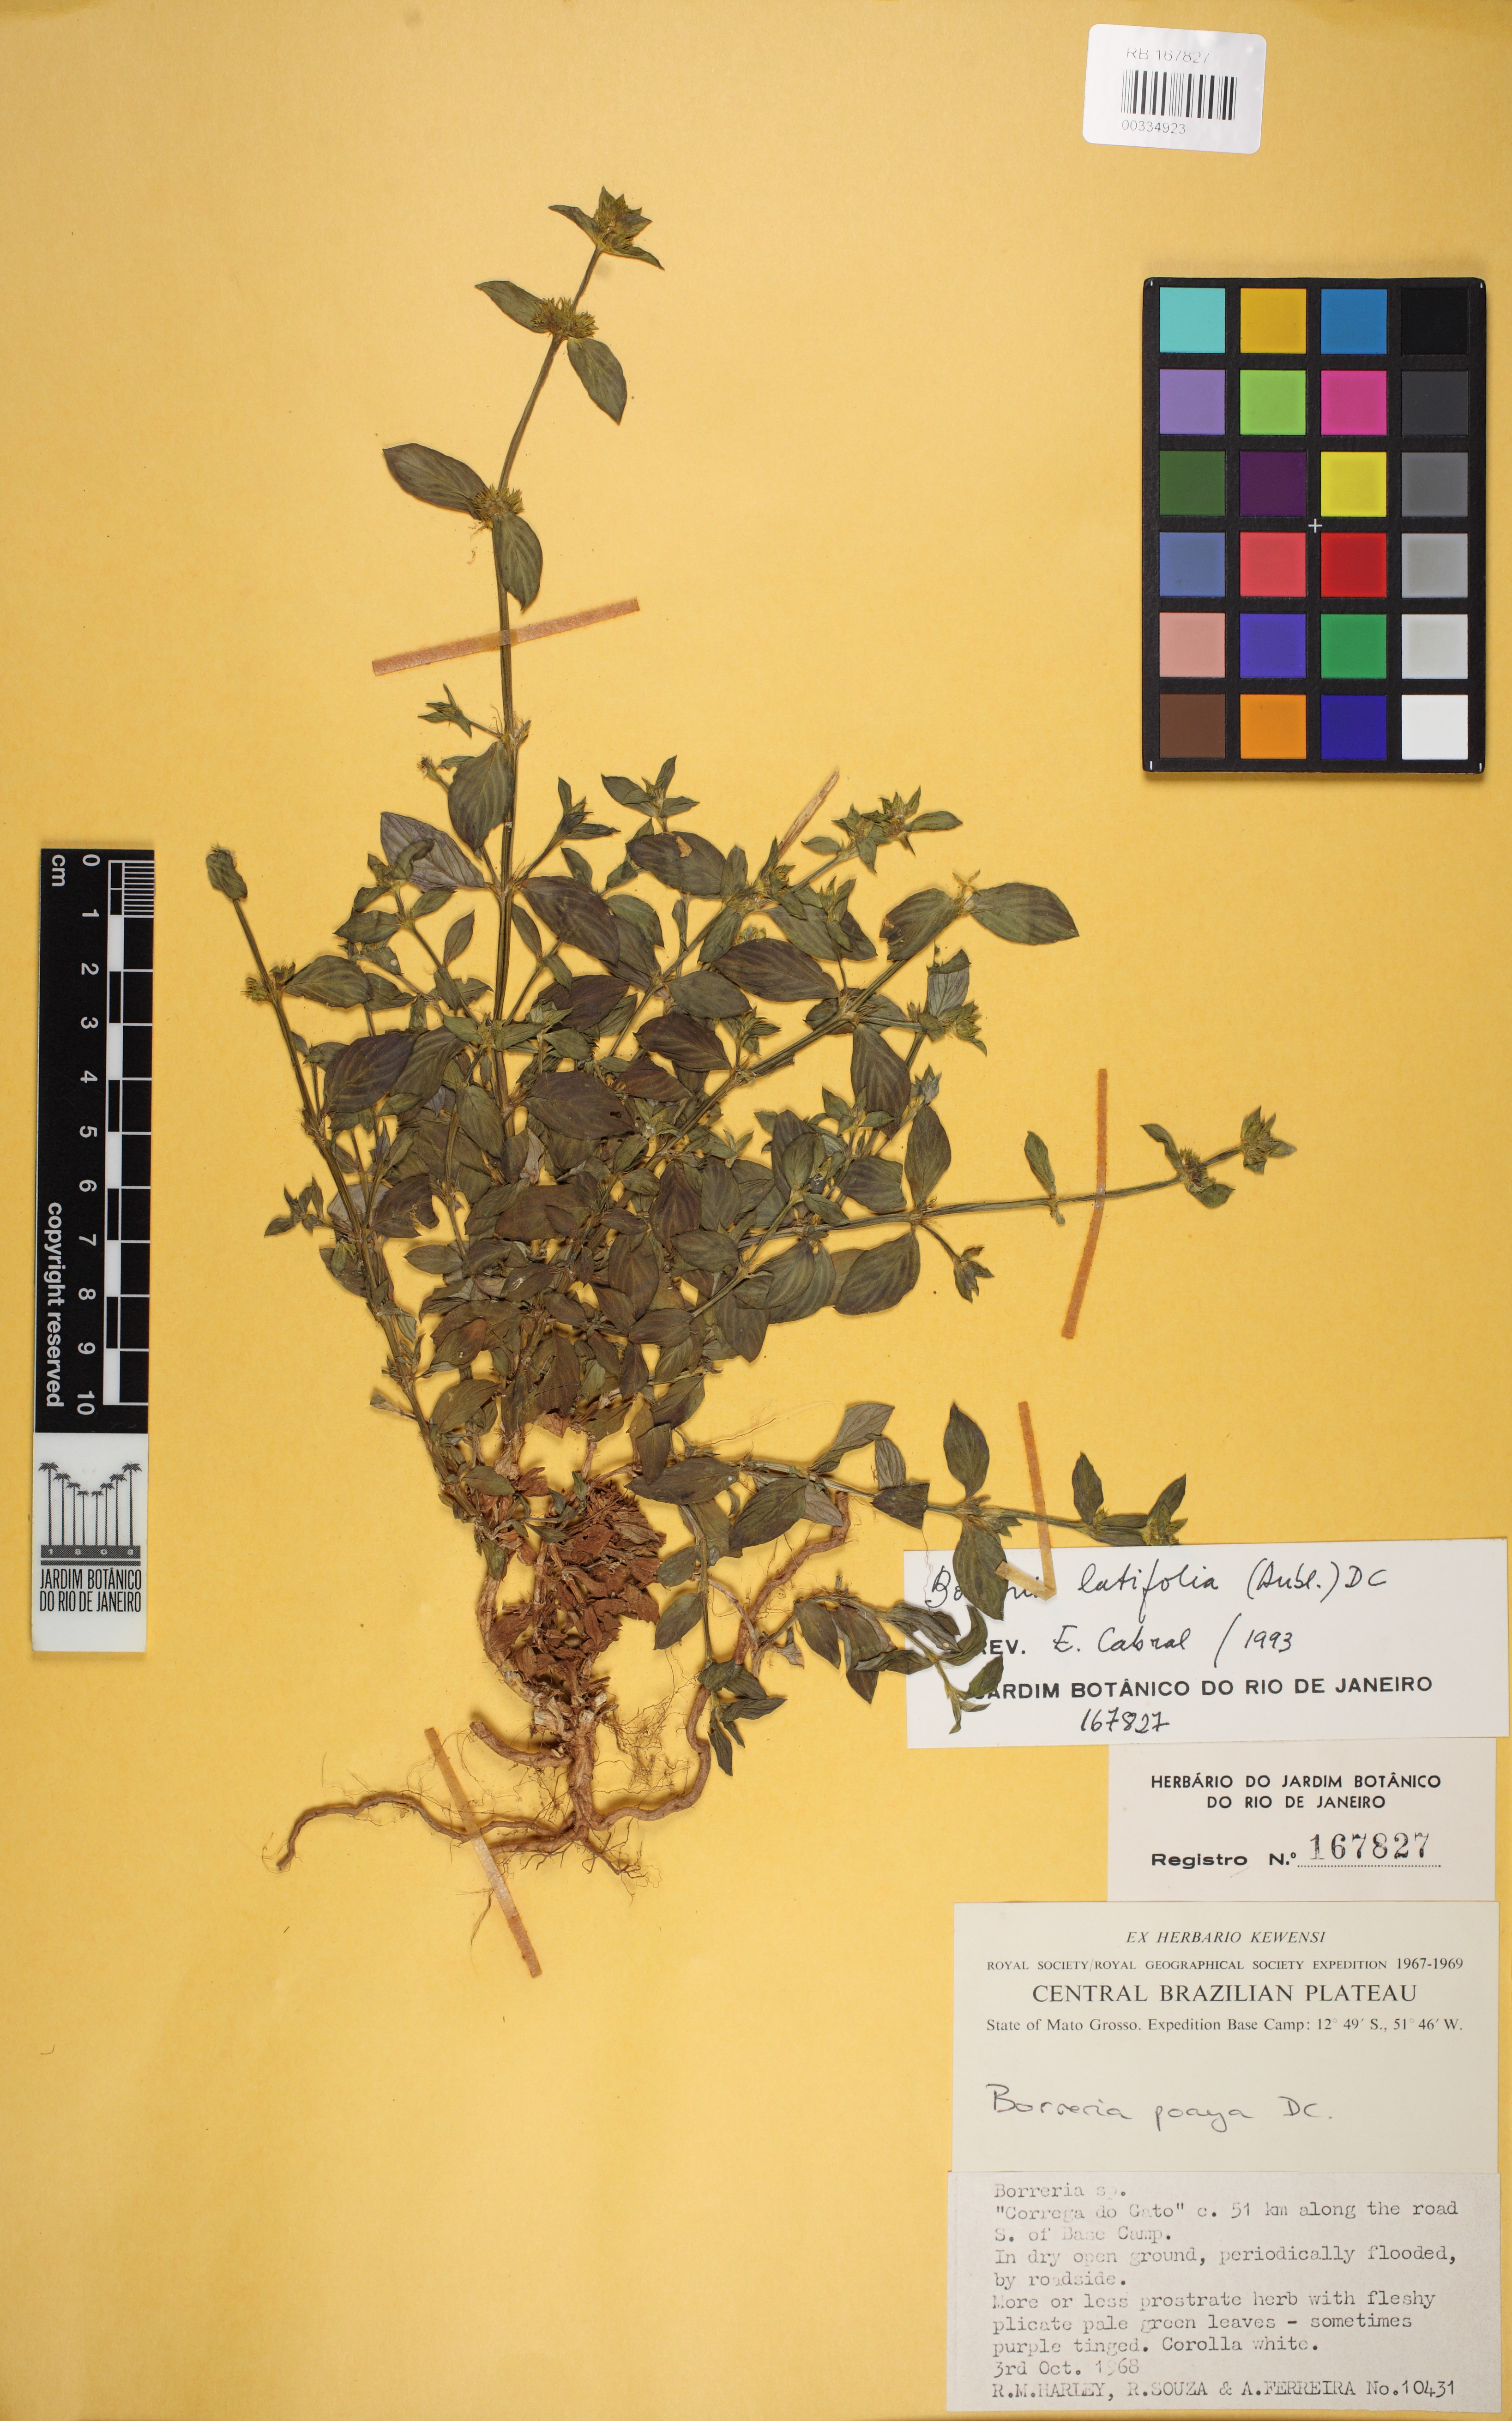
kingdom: Plantae
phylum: Tracheophyta
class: Magnoliopsida
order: Gentianales
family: Rubiaceae
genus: Spermacoce
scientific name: Spermacoce latifolia
